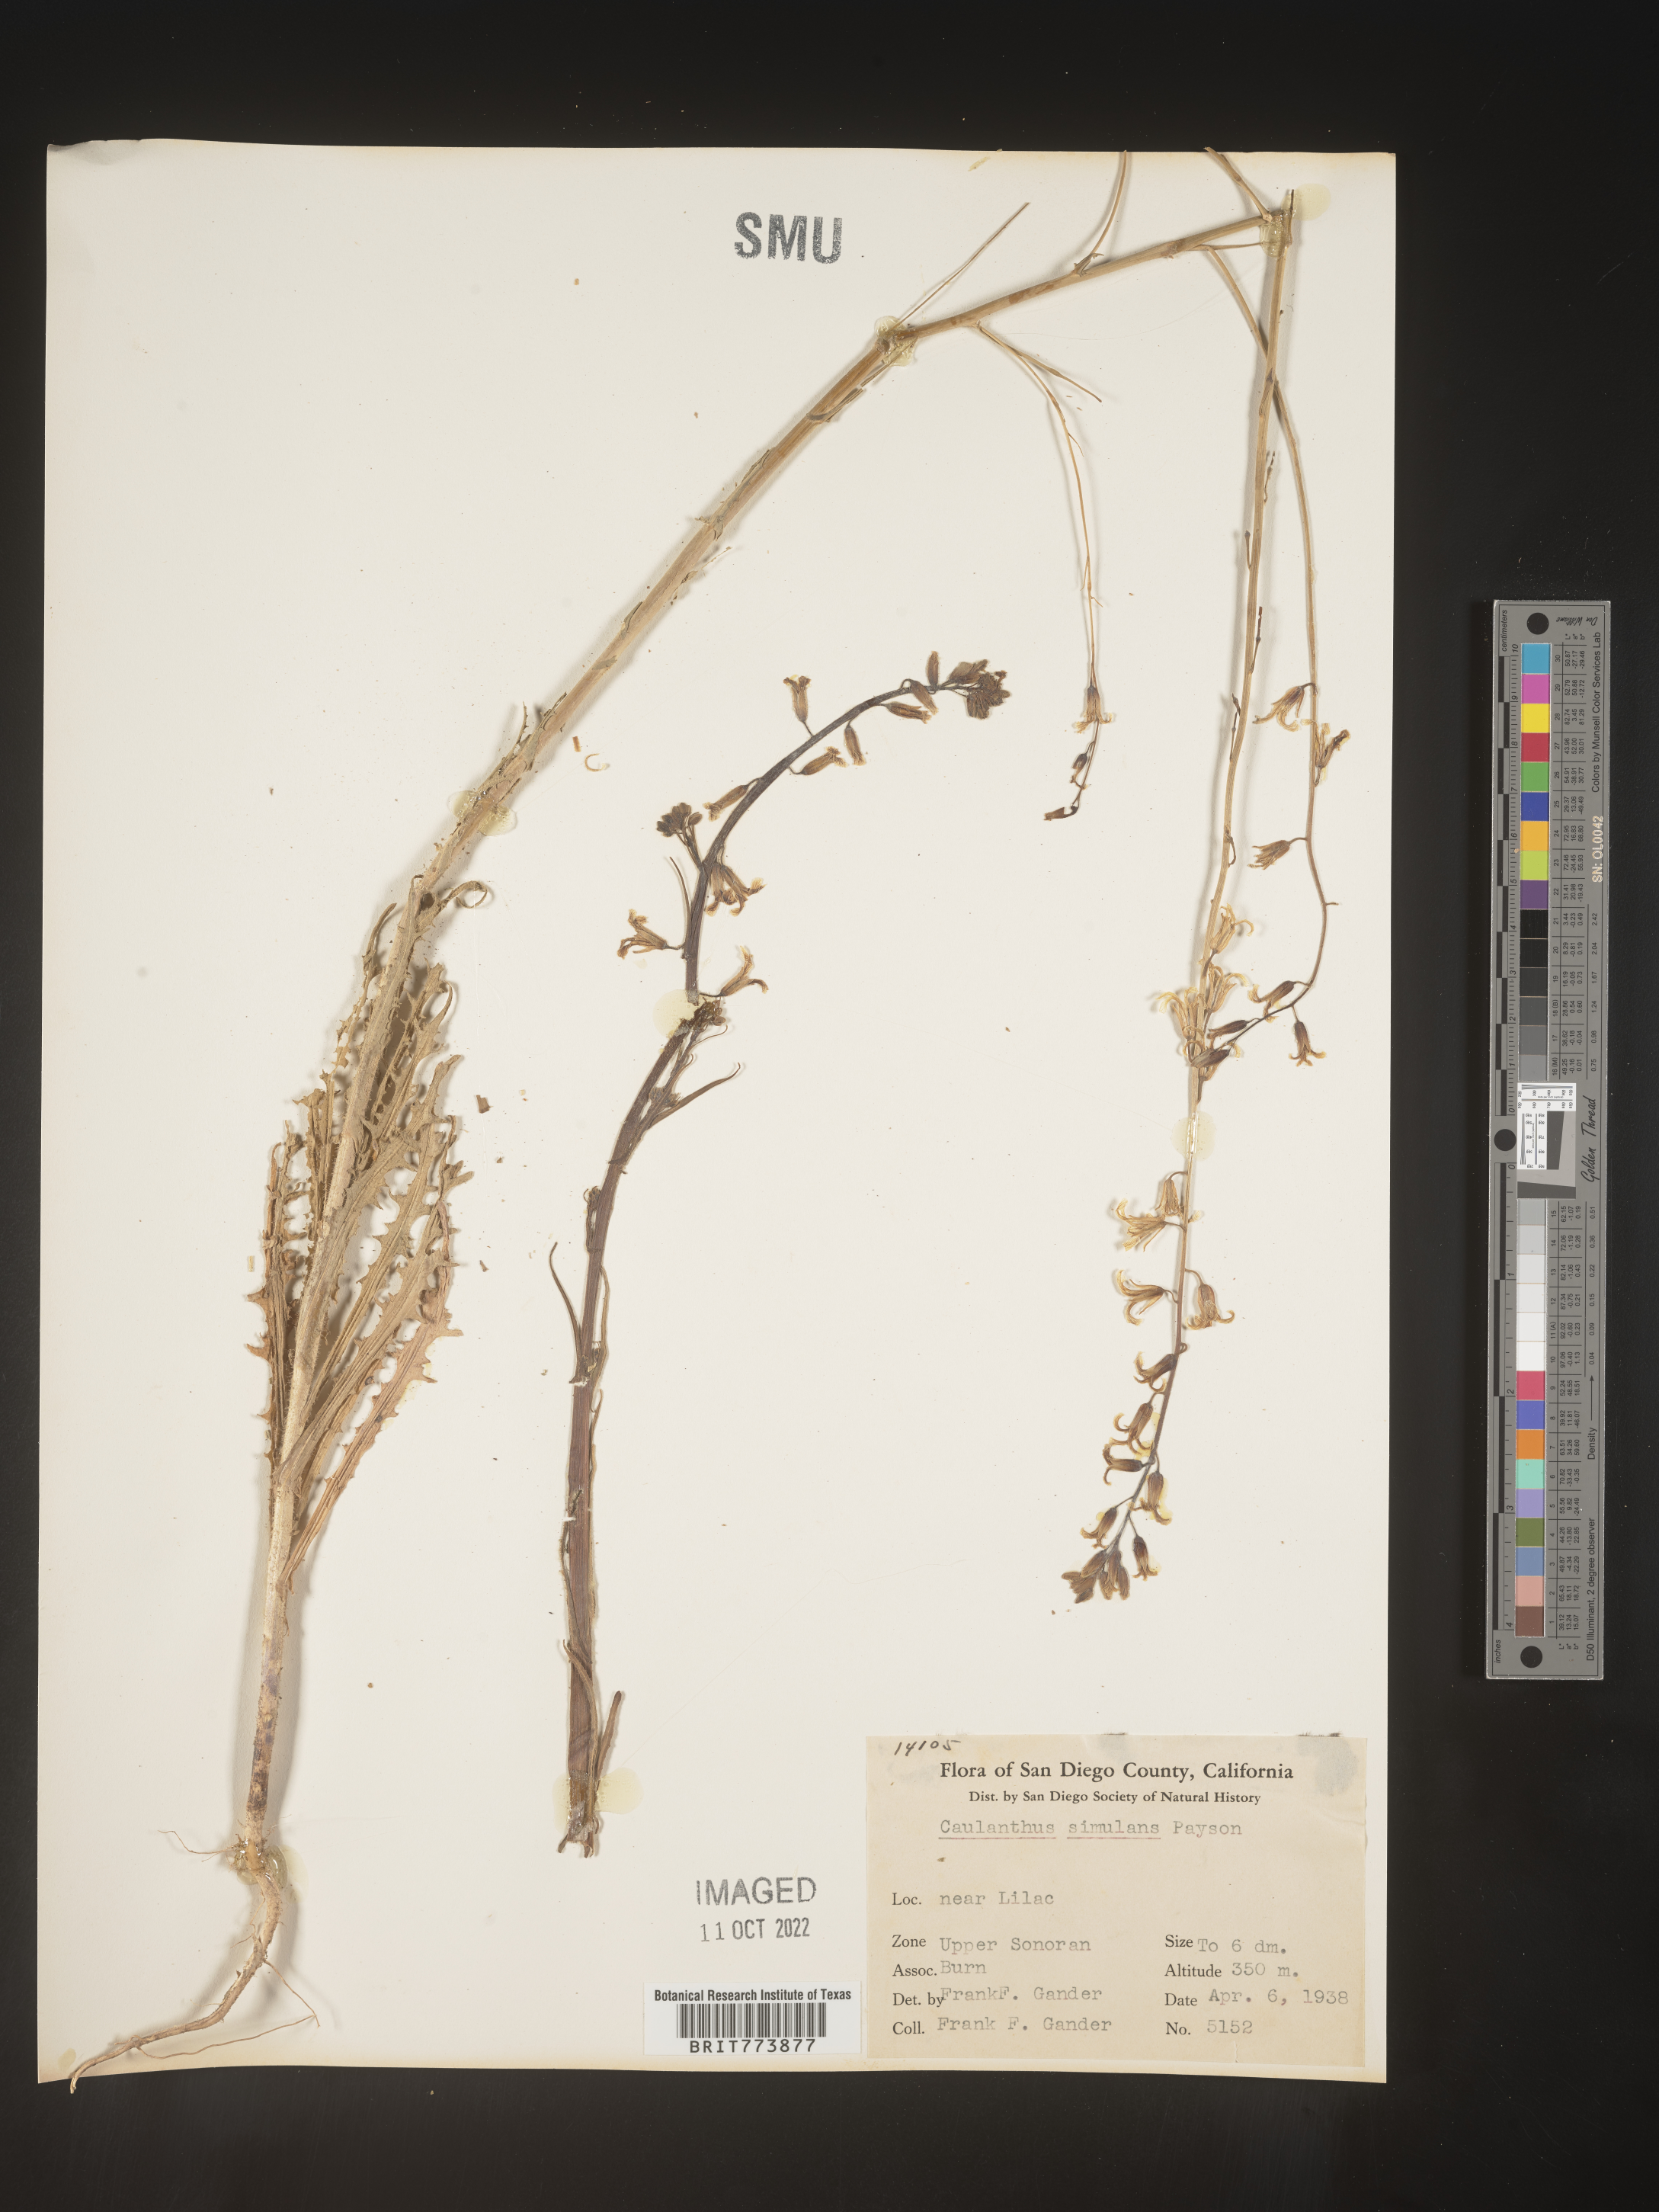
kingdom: Plantae
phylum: Tracheophyta
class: Magnoliopsida
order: Brassicales
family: Brassicaceae
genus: Streptanthus
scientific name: Streptanthus
